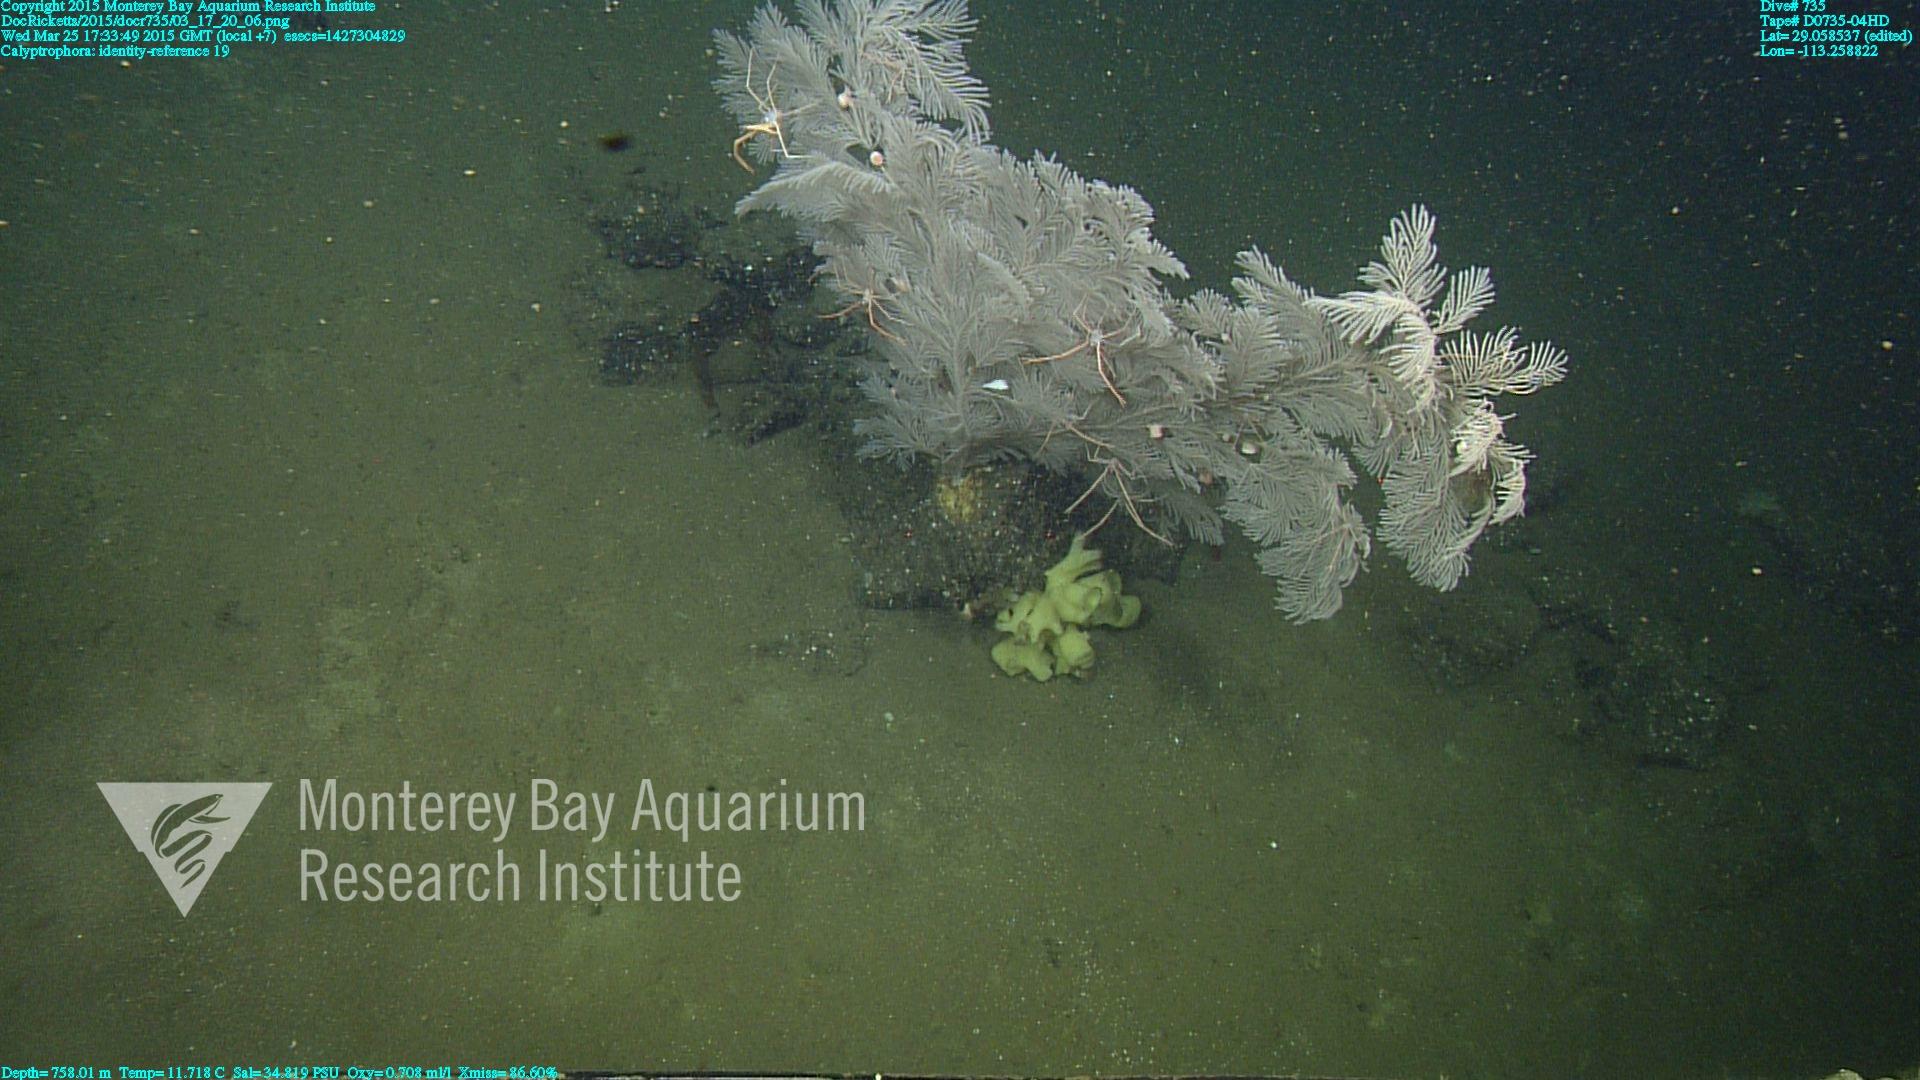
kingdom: Animalia
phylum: Cnidaria
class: Anthozoa
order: Scleralcyonacea
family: Primnoidae
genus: Calyptrophora
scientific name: Calyptrophora
